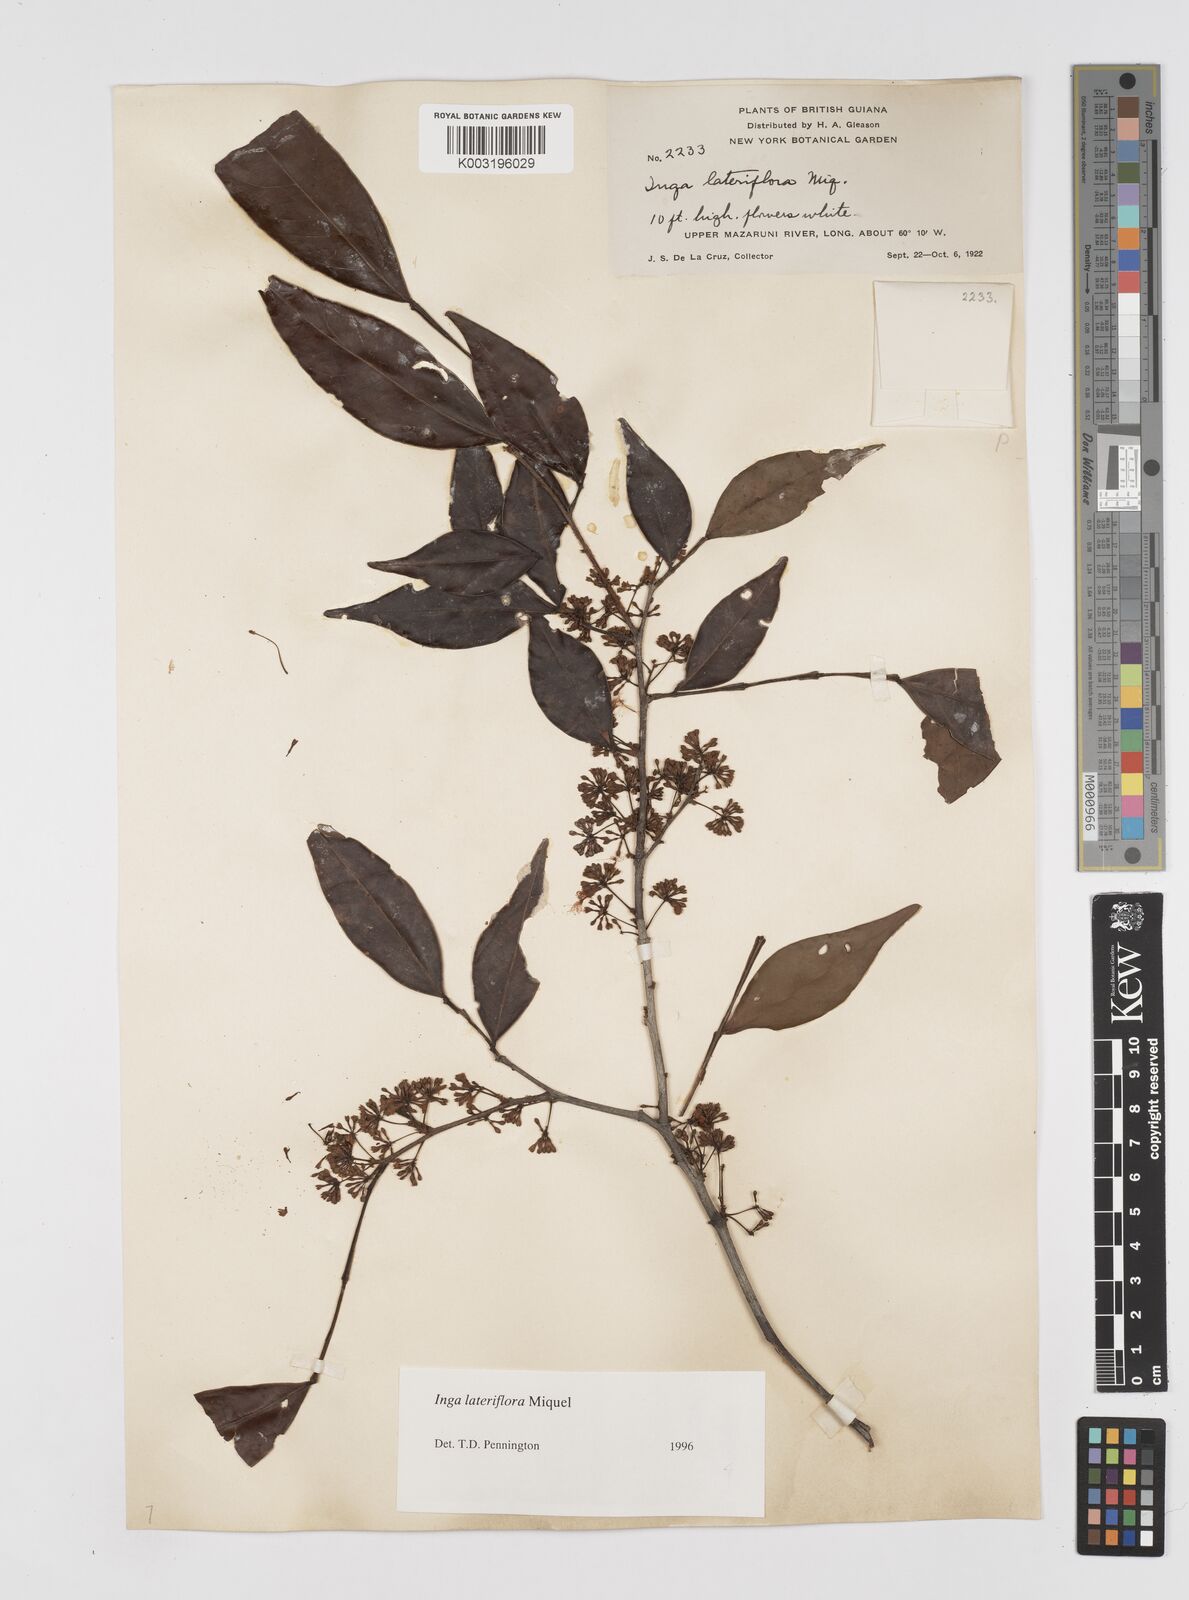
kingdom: Plantae
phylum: Tracheophyta
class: Magnoliopsida
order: Fabales
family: Fabaceae
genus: Inga
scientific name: Inga lateriflora
